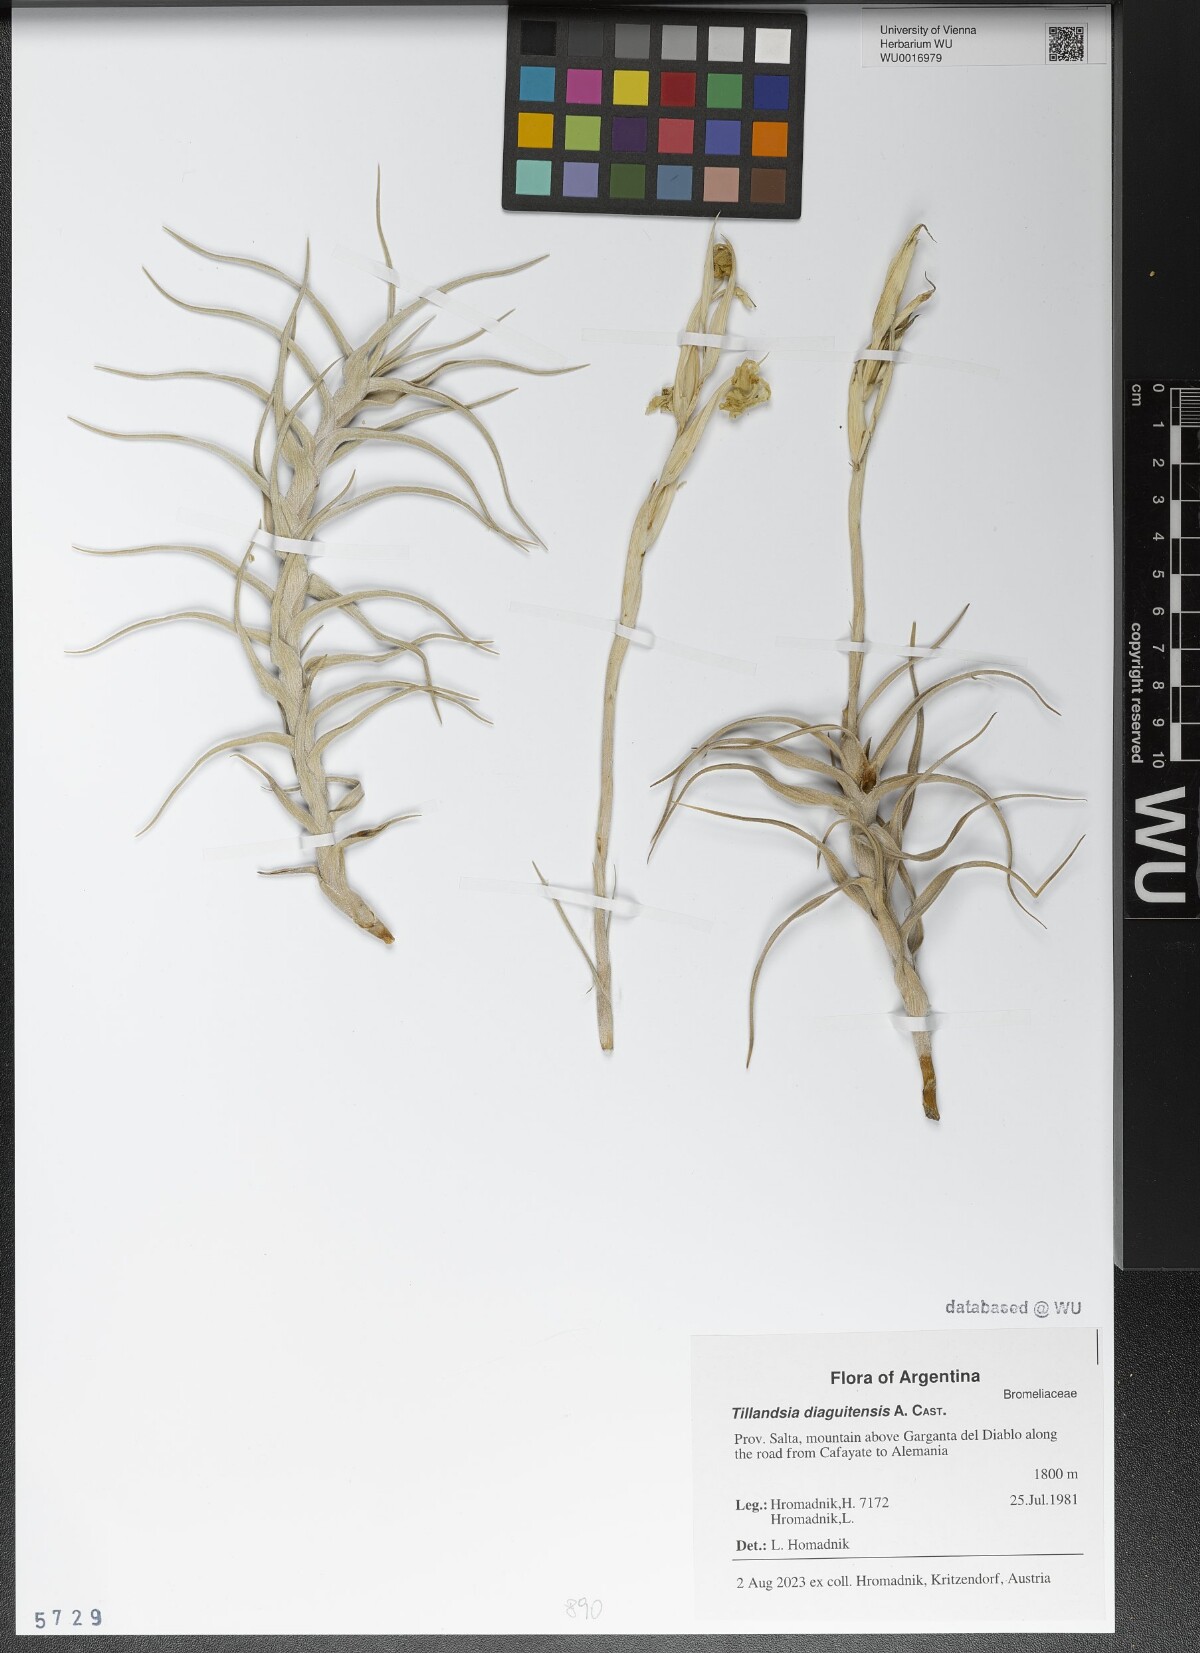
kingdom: Plantae
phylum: Tracheophyta
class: Liliopsida
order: Poales
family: Bromeliaceae
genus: Tillandsia
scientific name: Tillandsia diaguitensis
